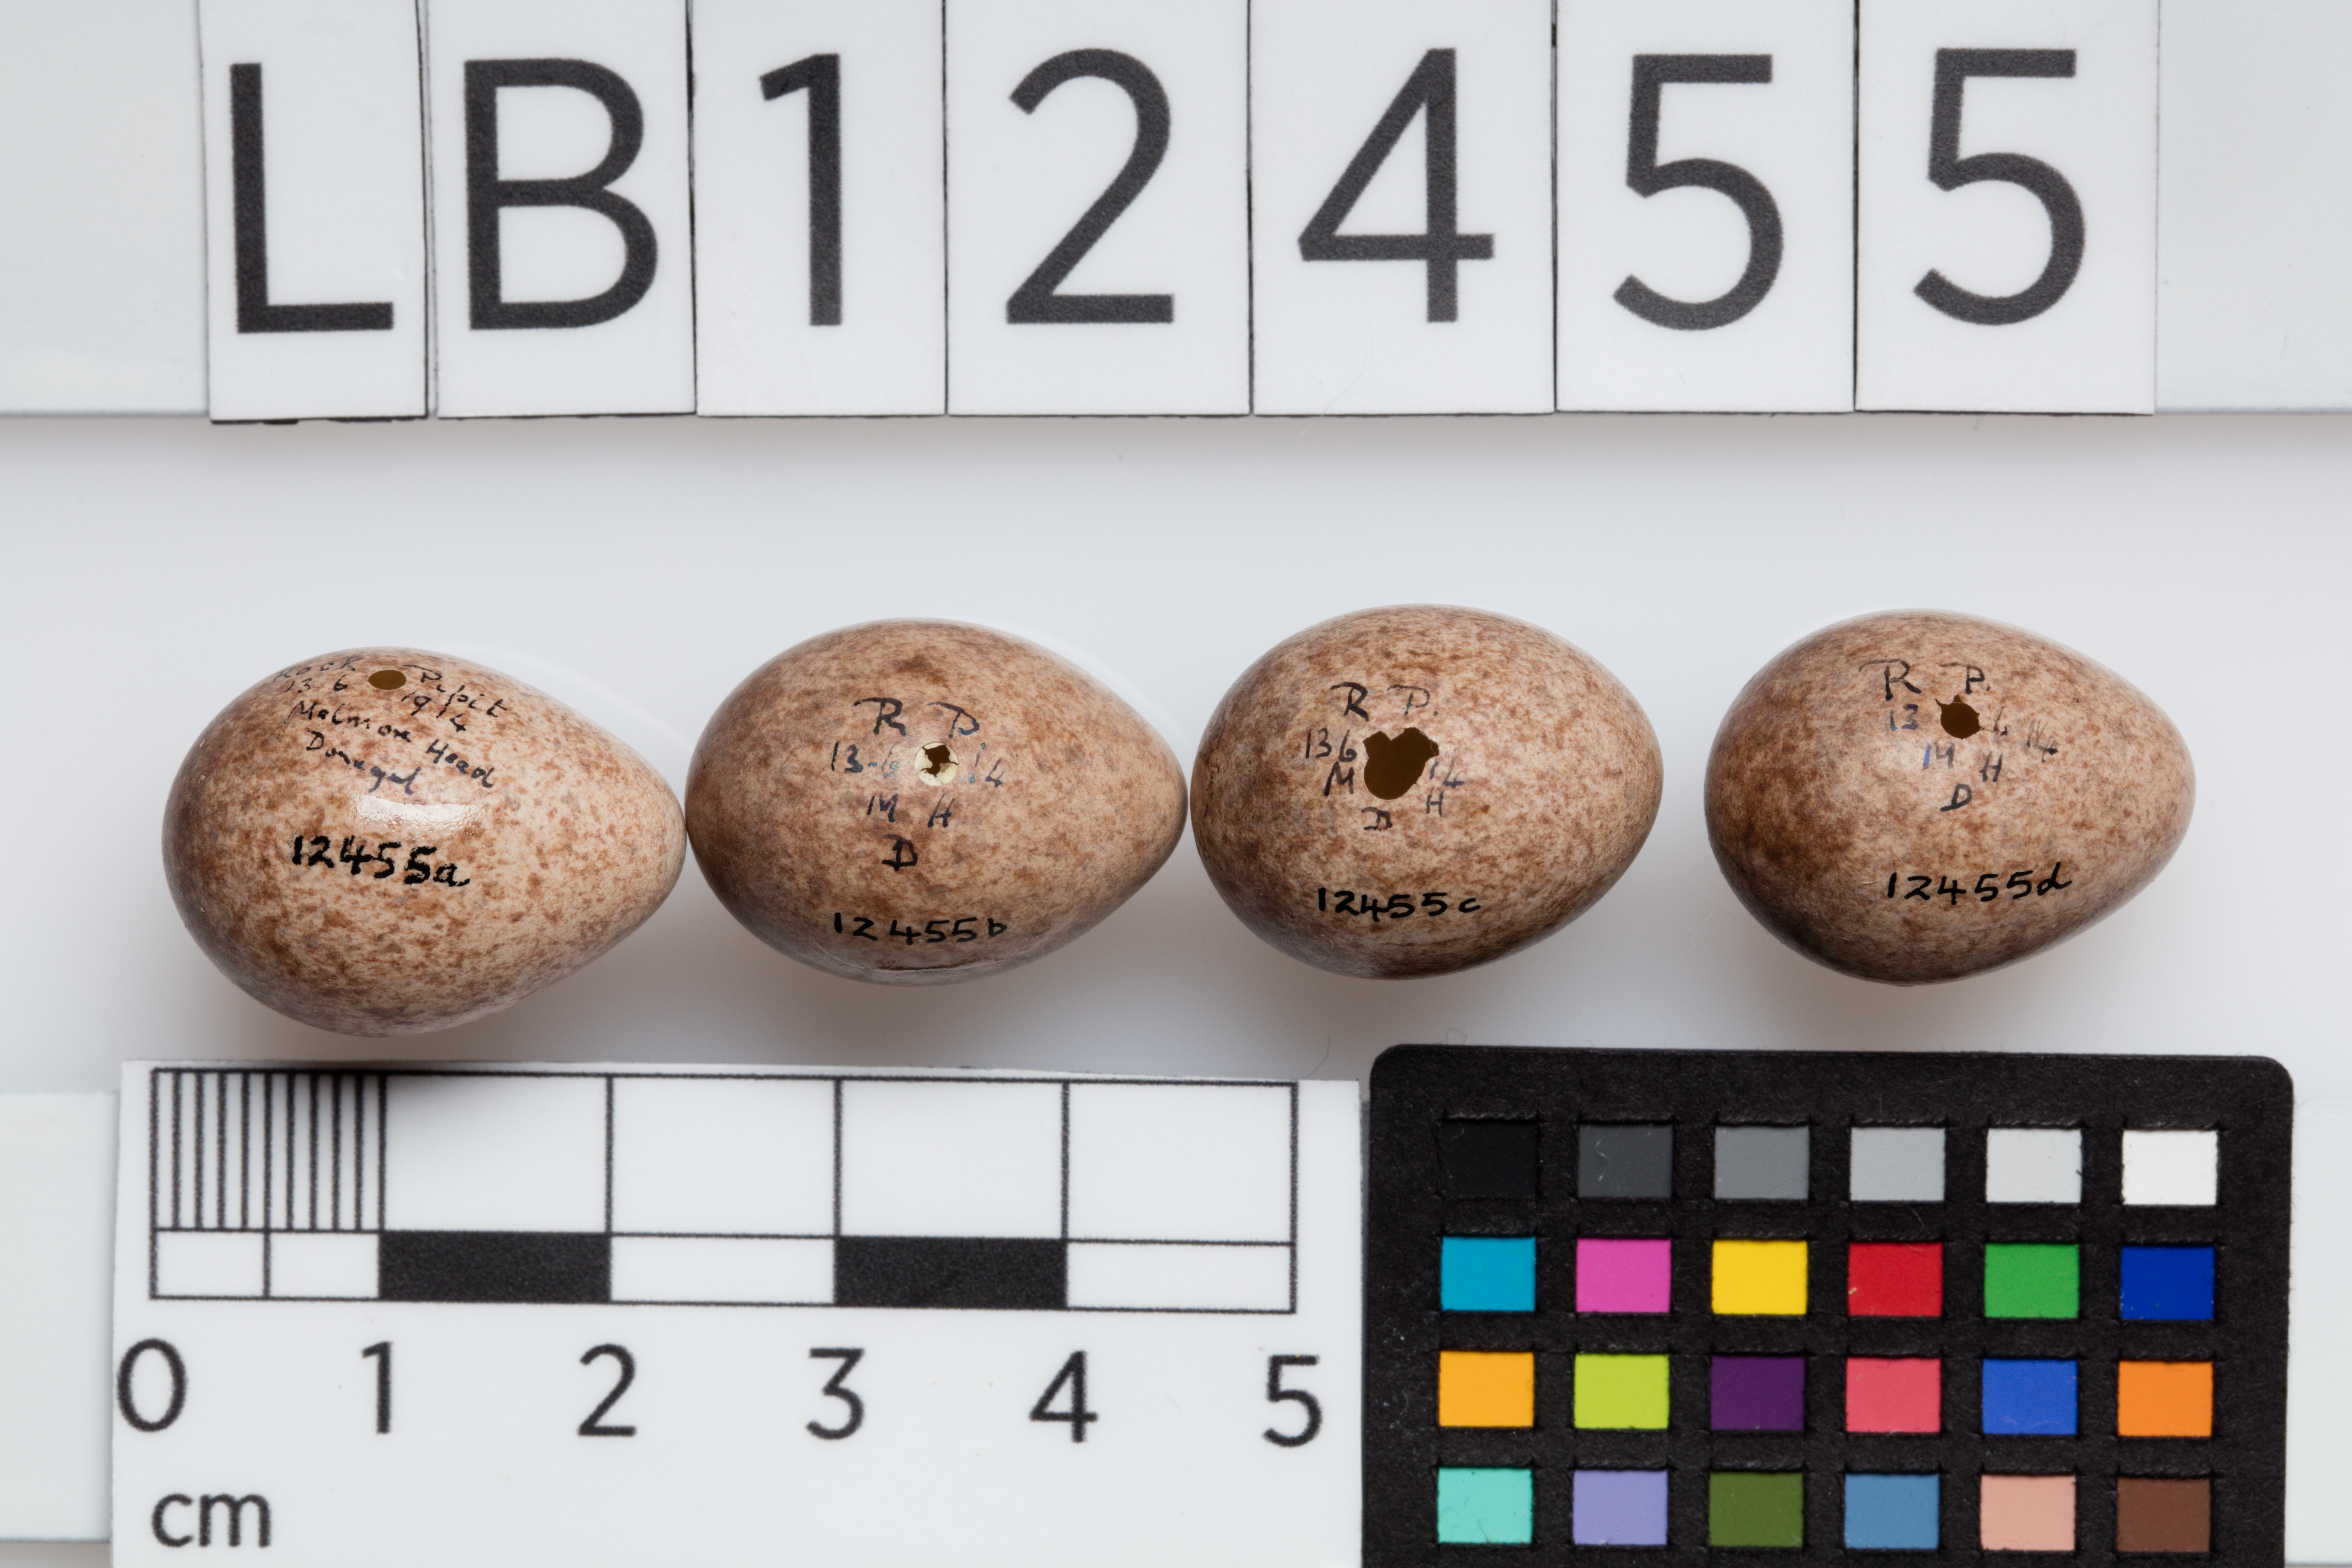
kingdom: Animalia
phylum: Chordata
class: Aves
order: Passeriformes
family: Motacillidae
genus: Anthus
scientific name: Anthus spinoletta
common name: Water pipit
